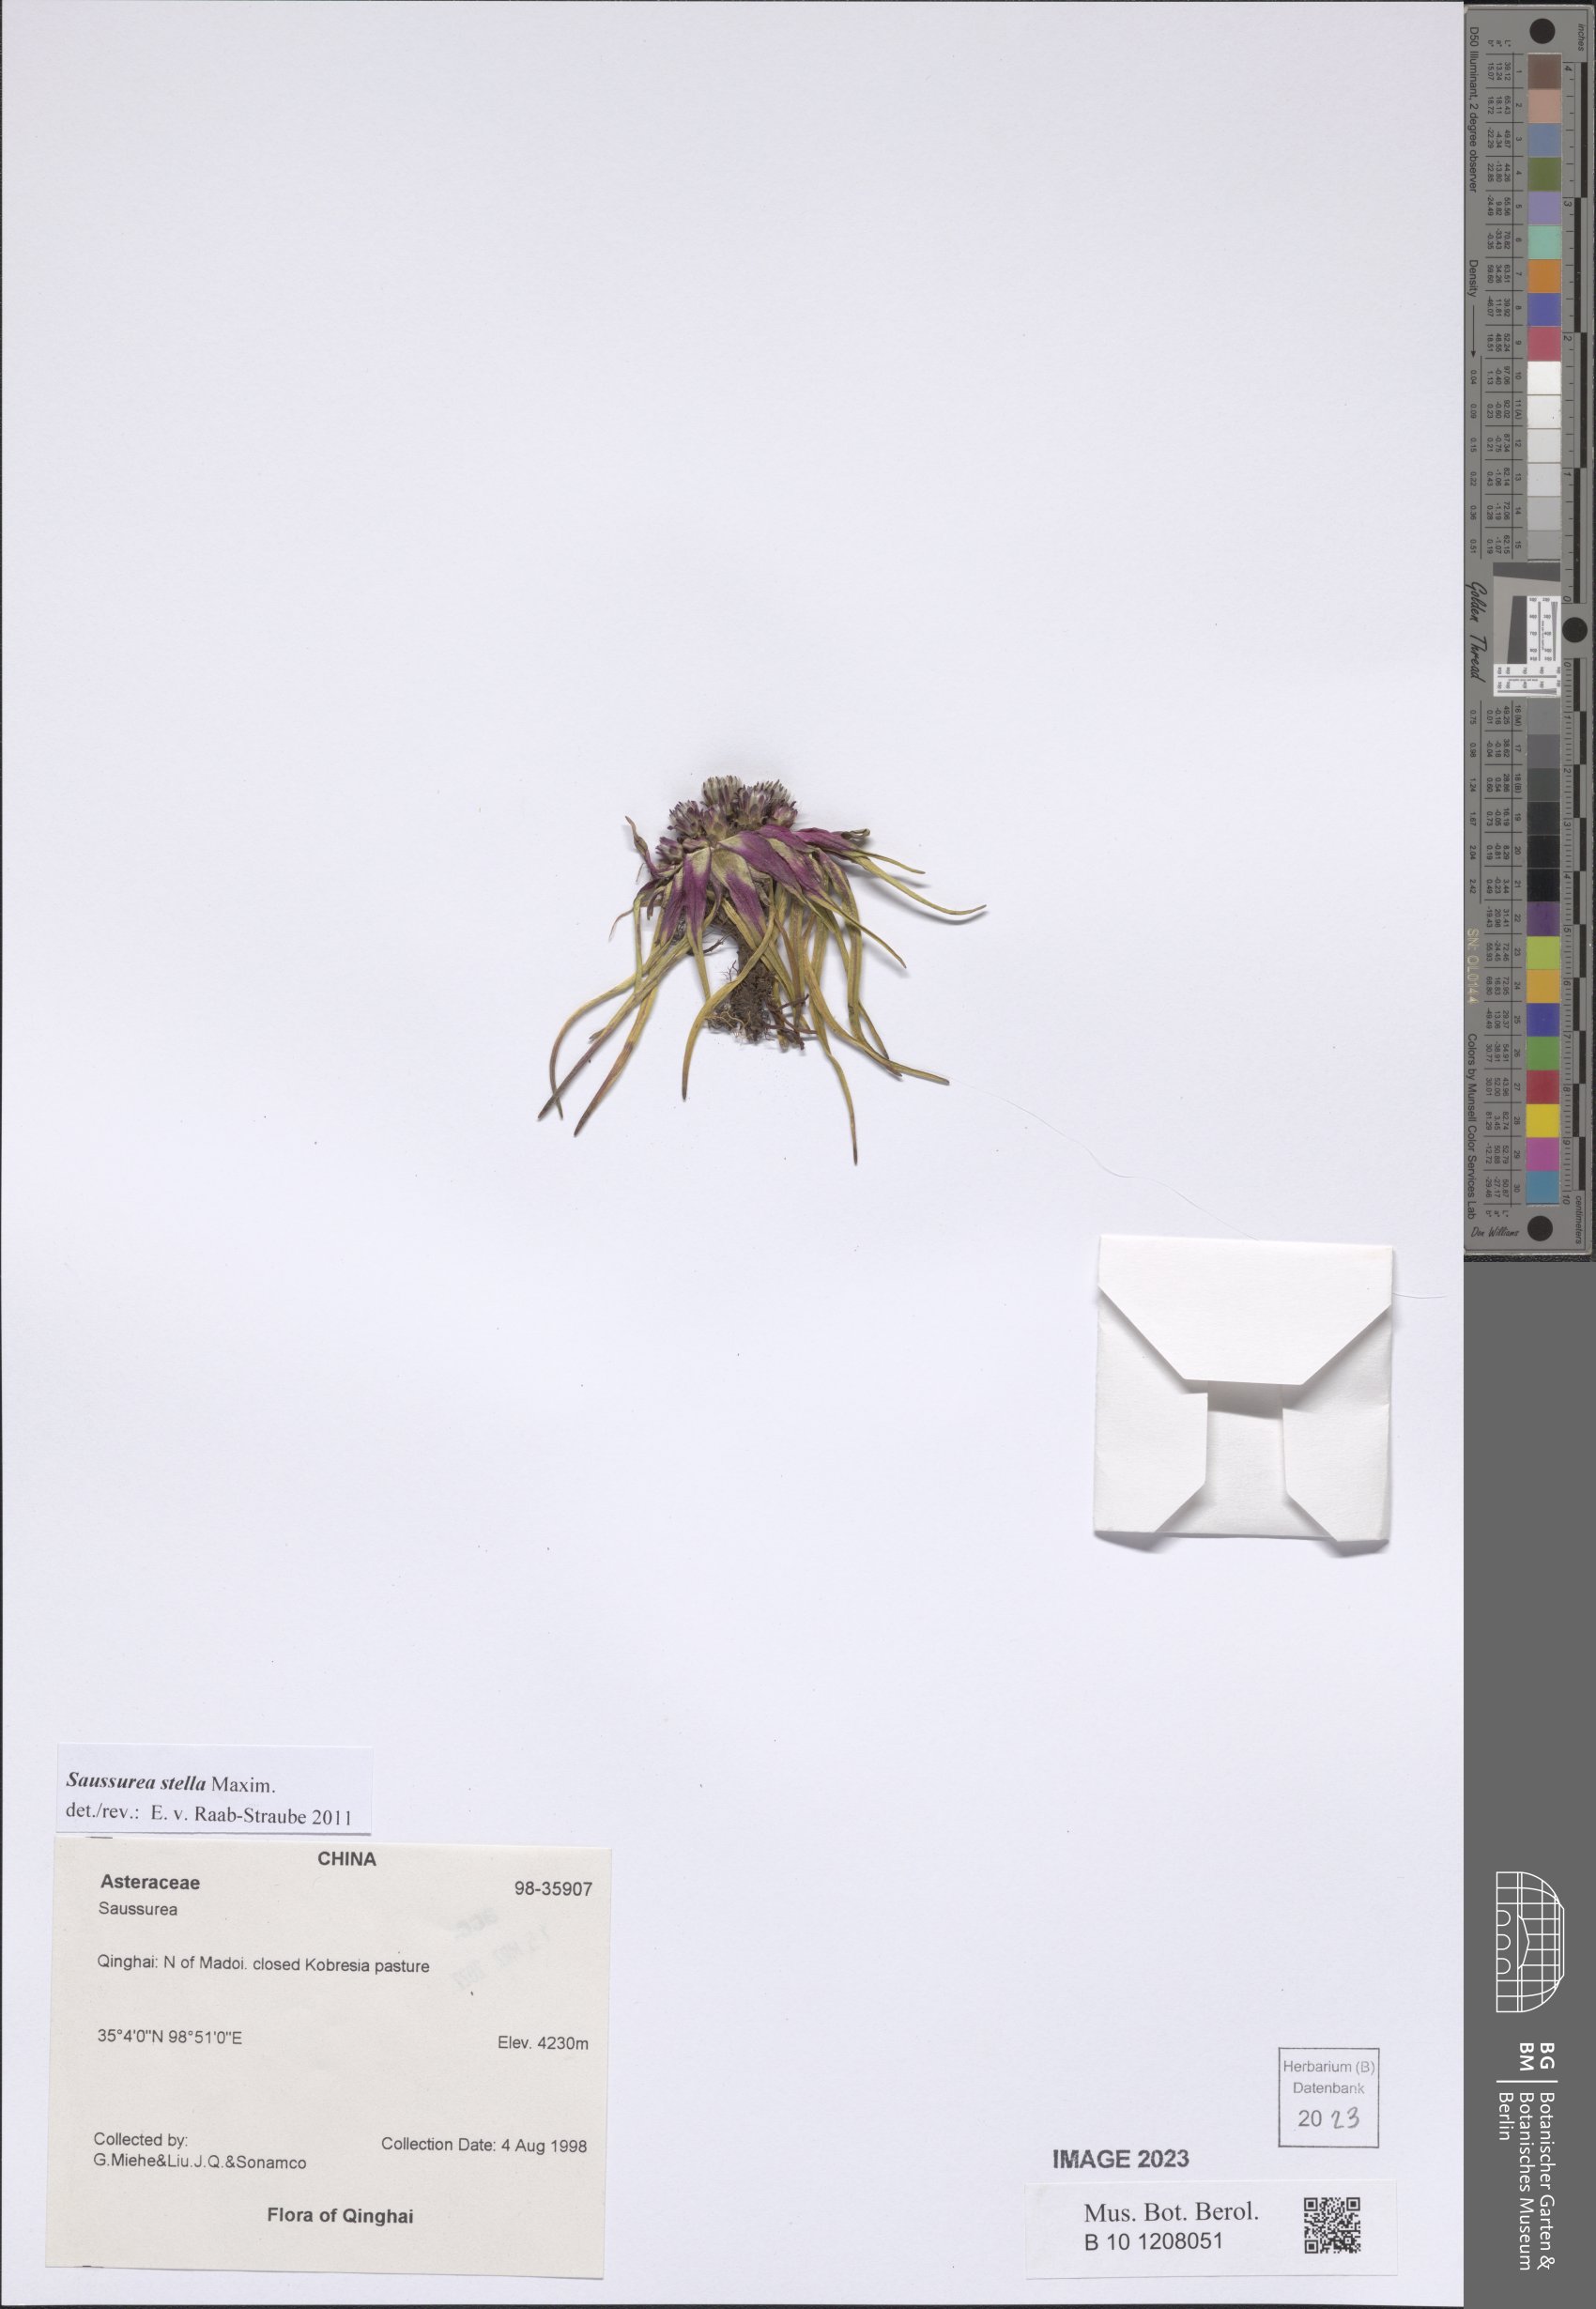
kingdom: Plantae
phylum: Tracheophyta
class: Magnoliopsida
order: Asterales
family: Asteraceae
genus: Saussurea
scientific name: Saussurea stella
